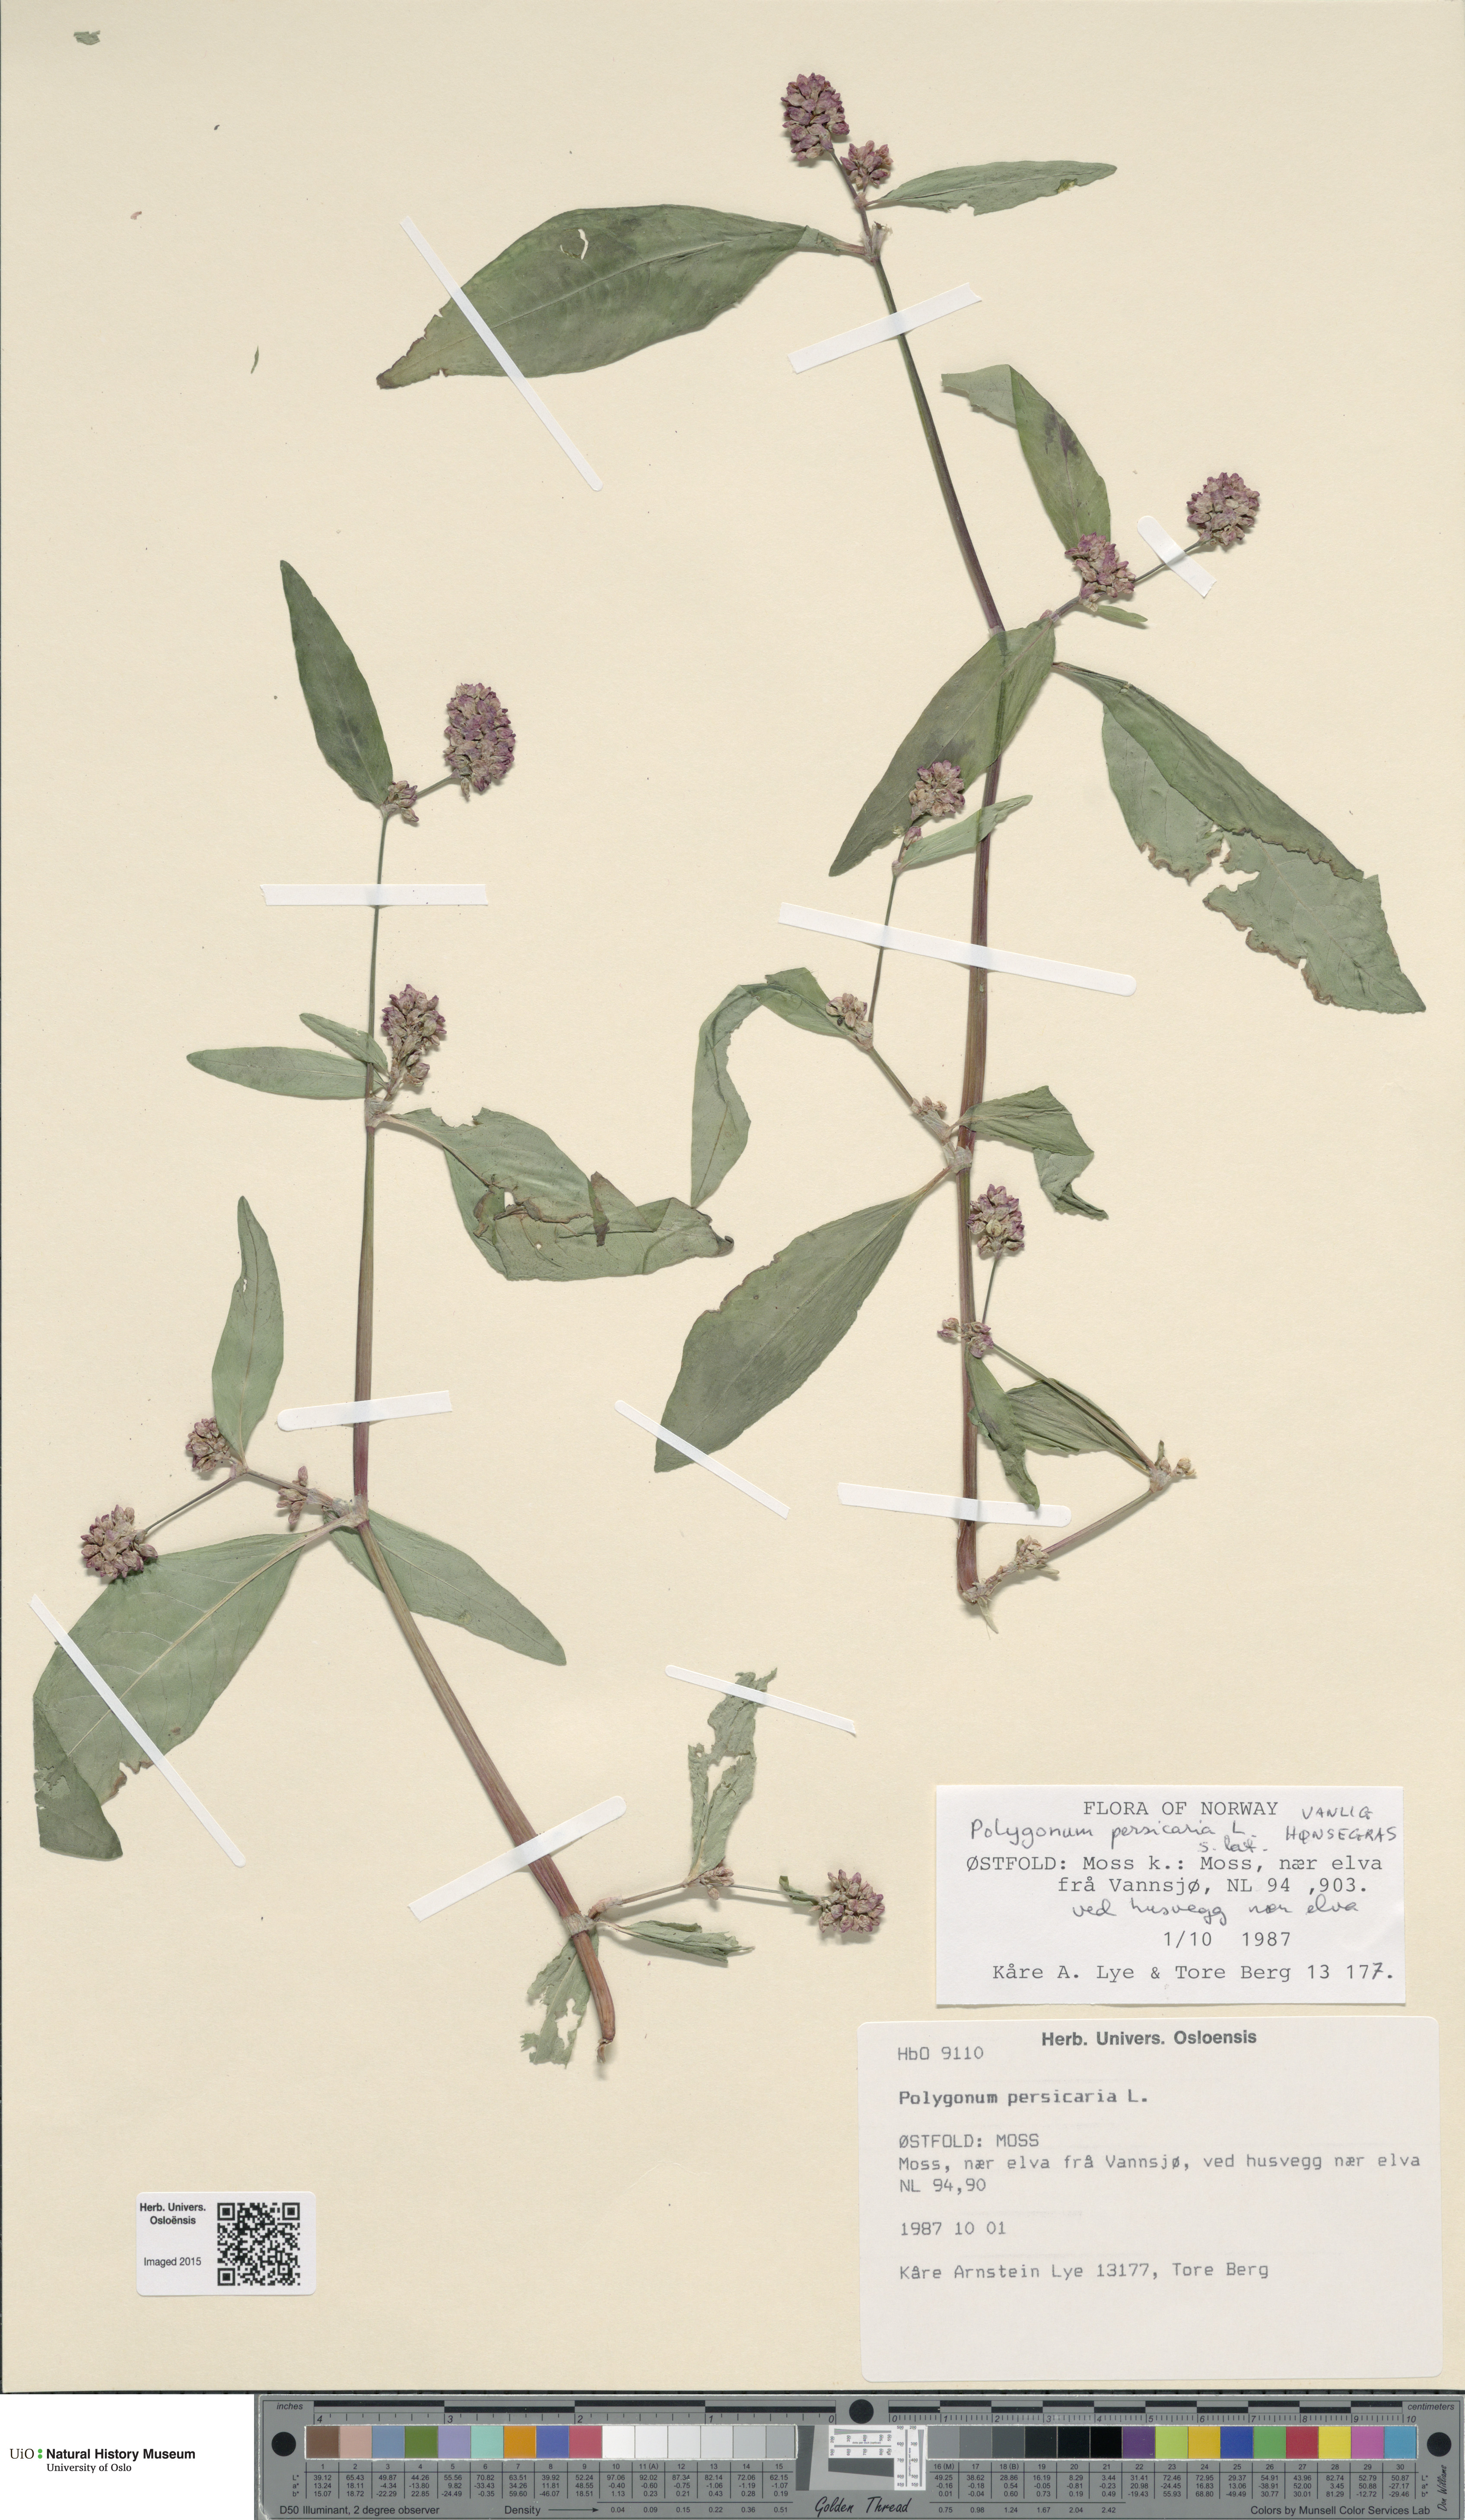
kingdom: Plantae
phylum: Tracheophyta
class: Magnoliopsida
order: Caryophyllales
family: Polygonaceae
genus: Persicaria
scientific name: Persicaria maculosa
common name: Redshank
